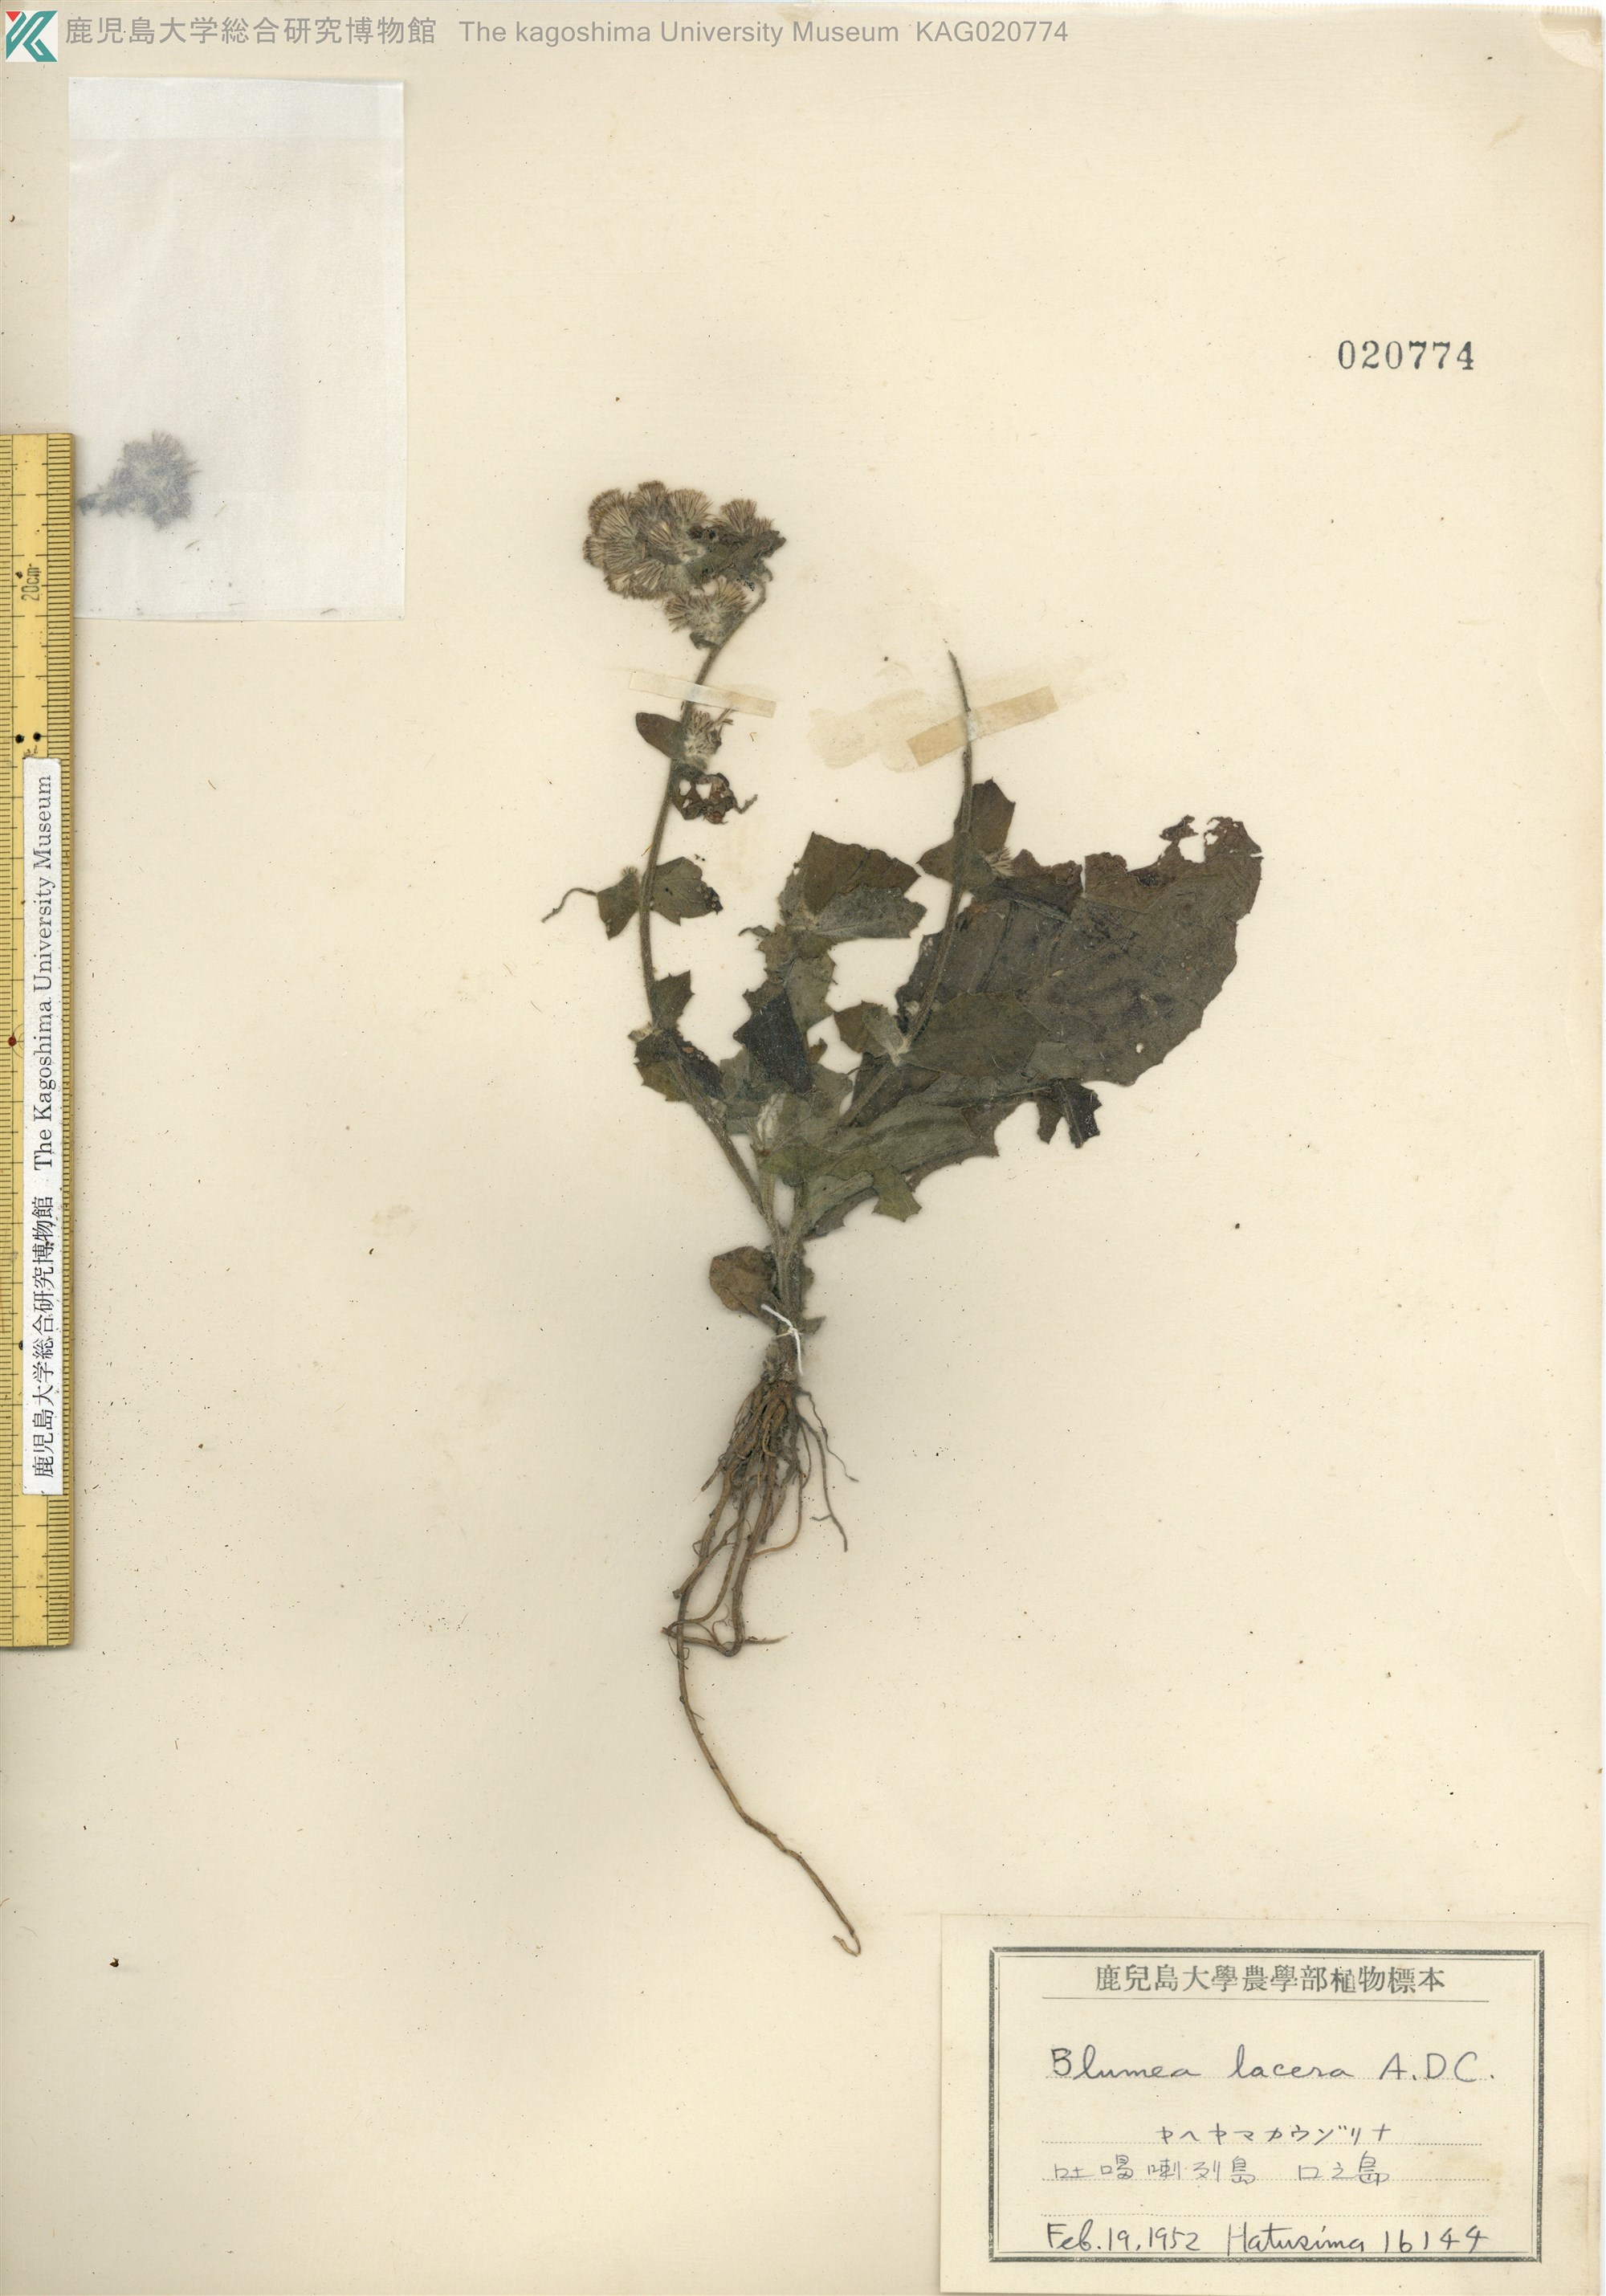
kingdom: Plantae
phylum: Tracheophyta
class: Magnoliopsida
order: Asterales
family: Asteraceae
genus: Blumea
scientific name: Blumea lacera
